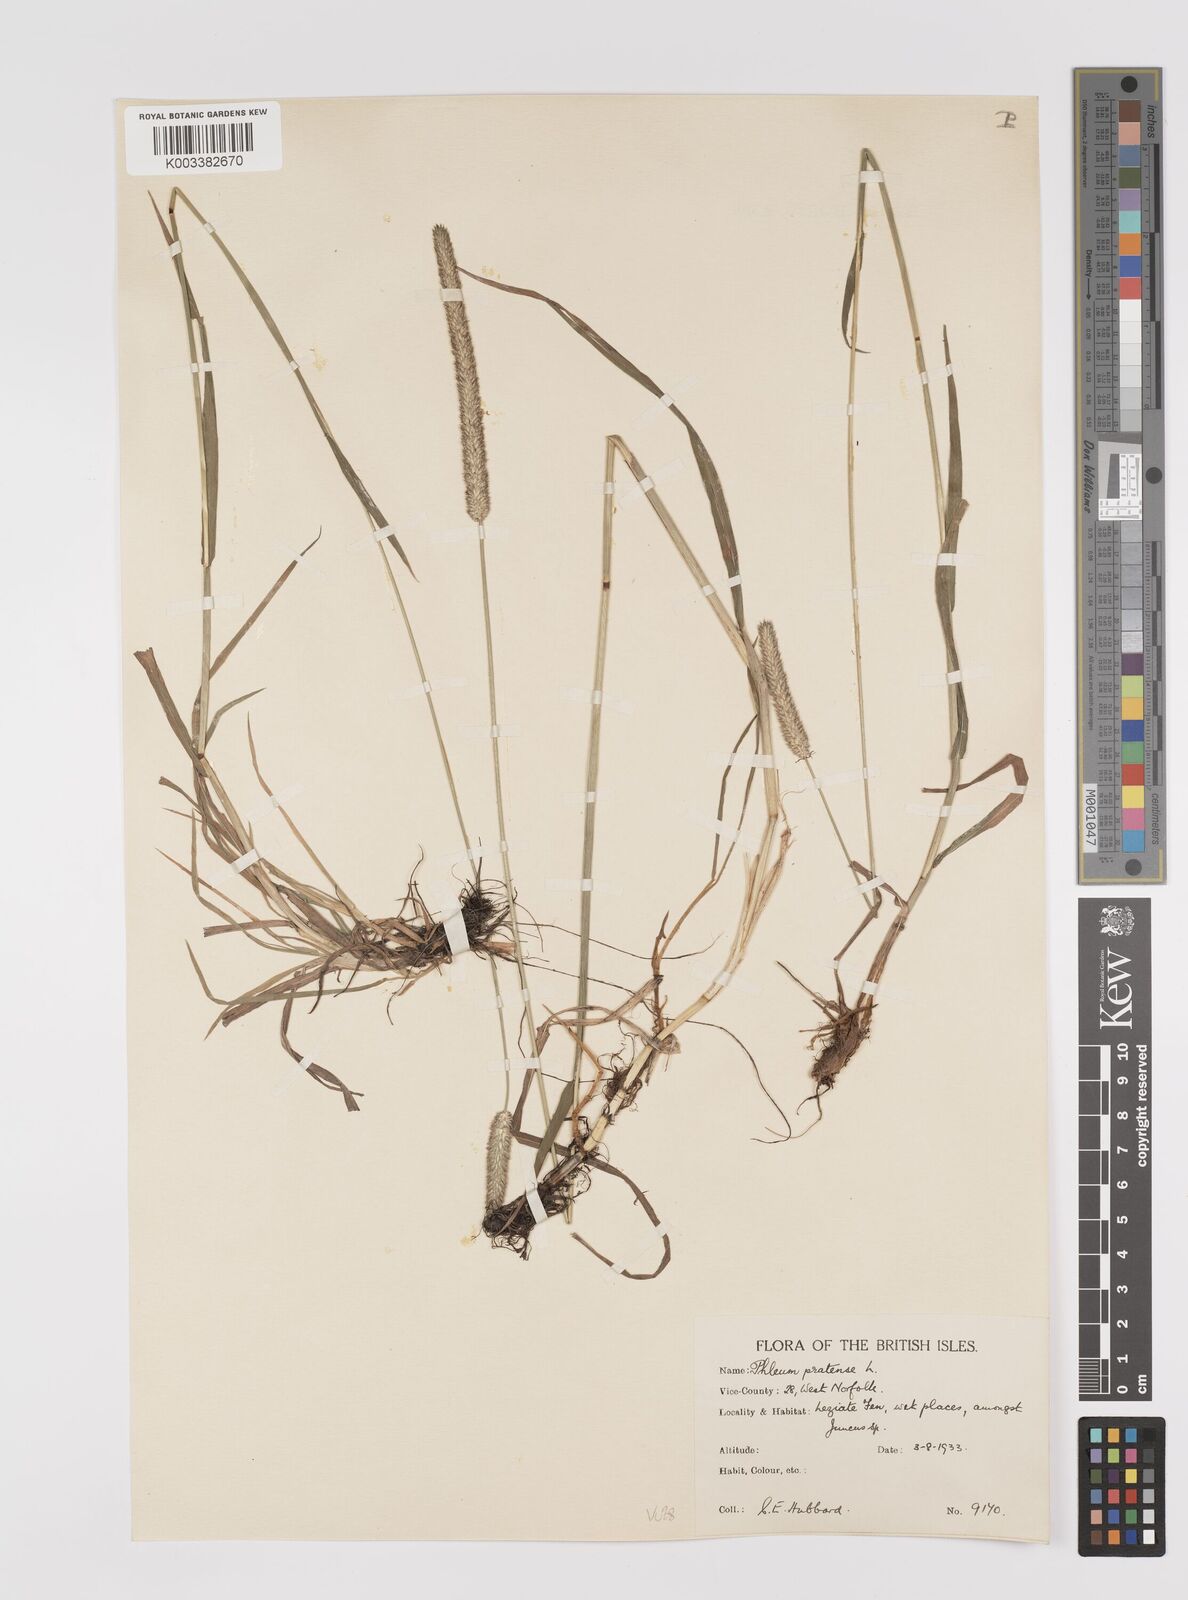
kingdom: Plantae
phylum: Tracheophyta
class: Liliopsida
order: Poales
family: Poaceae
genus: Phleum
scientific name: Phleum pratense
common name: Timothy grass
